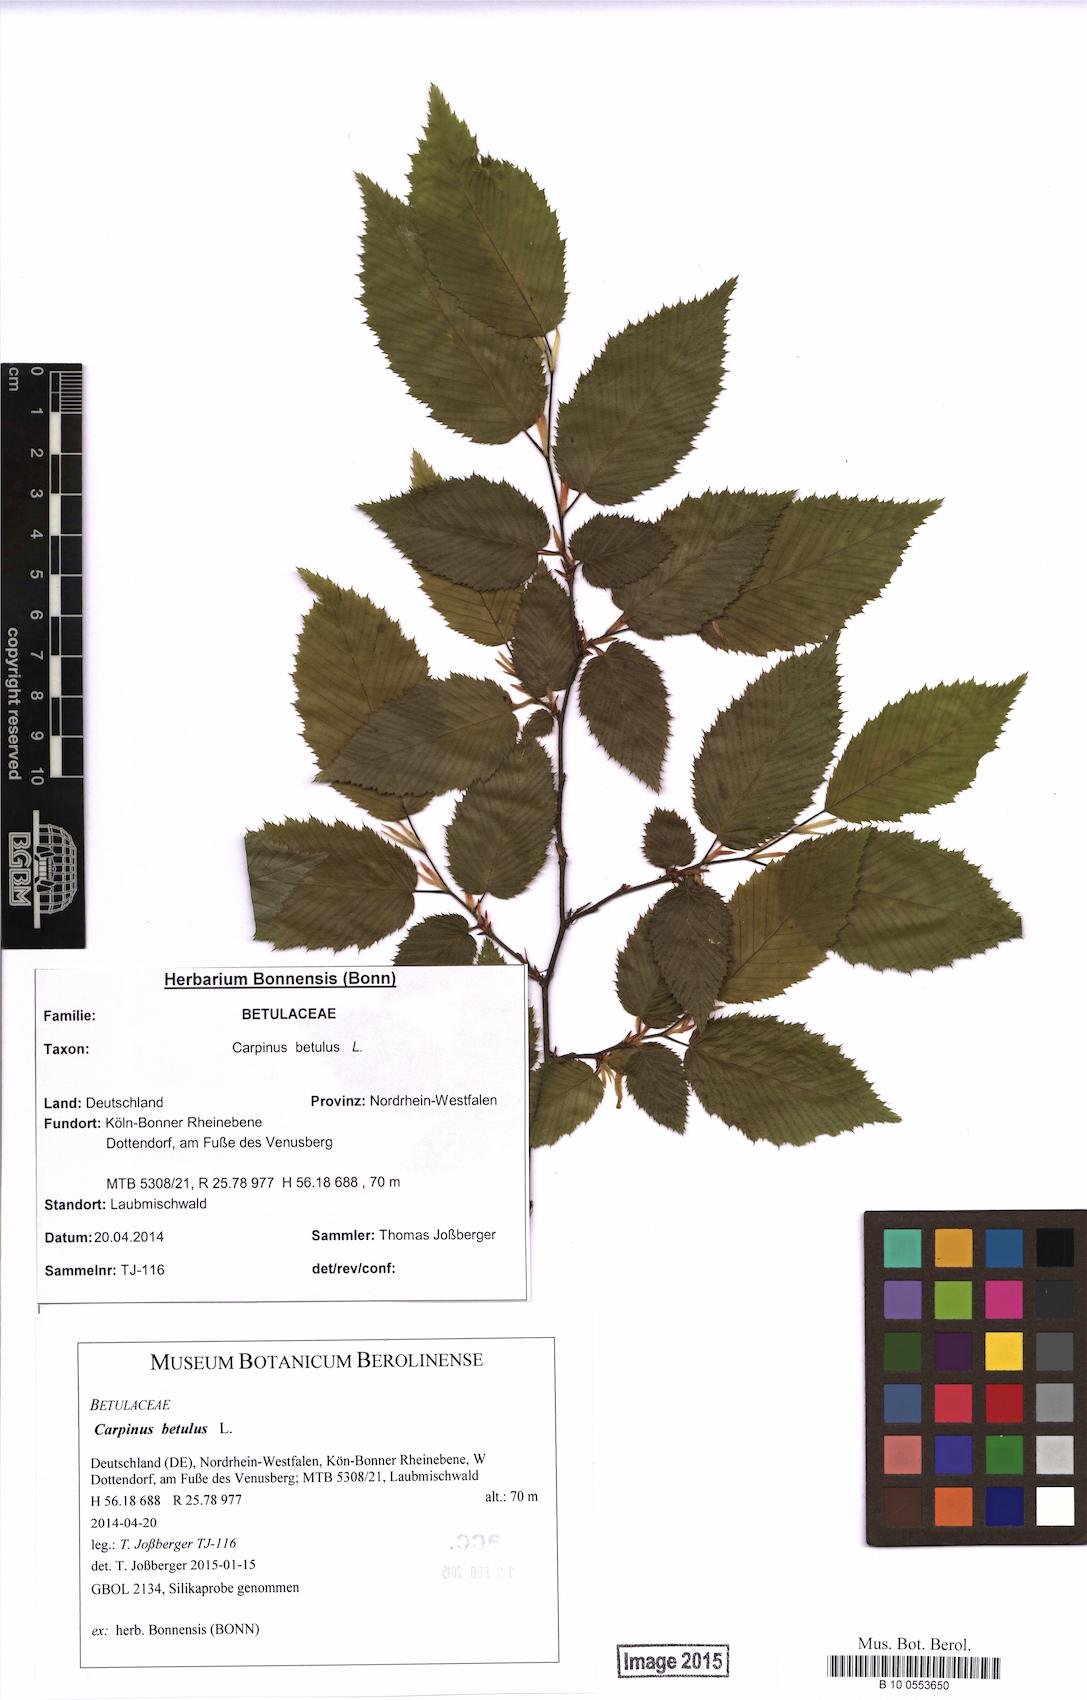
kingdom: Plantae
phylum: Tracheophyta
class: Magnoliopsida
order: Fagales
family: Betulaceae
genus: Carpinus
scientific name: Carpinus betulus
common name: Hornbeam
